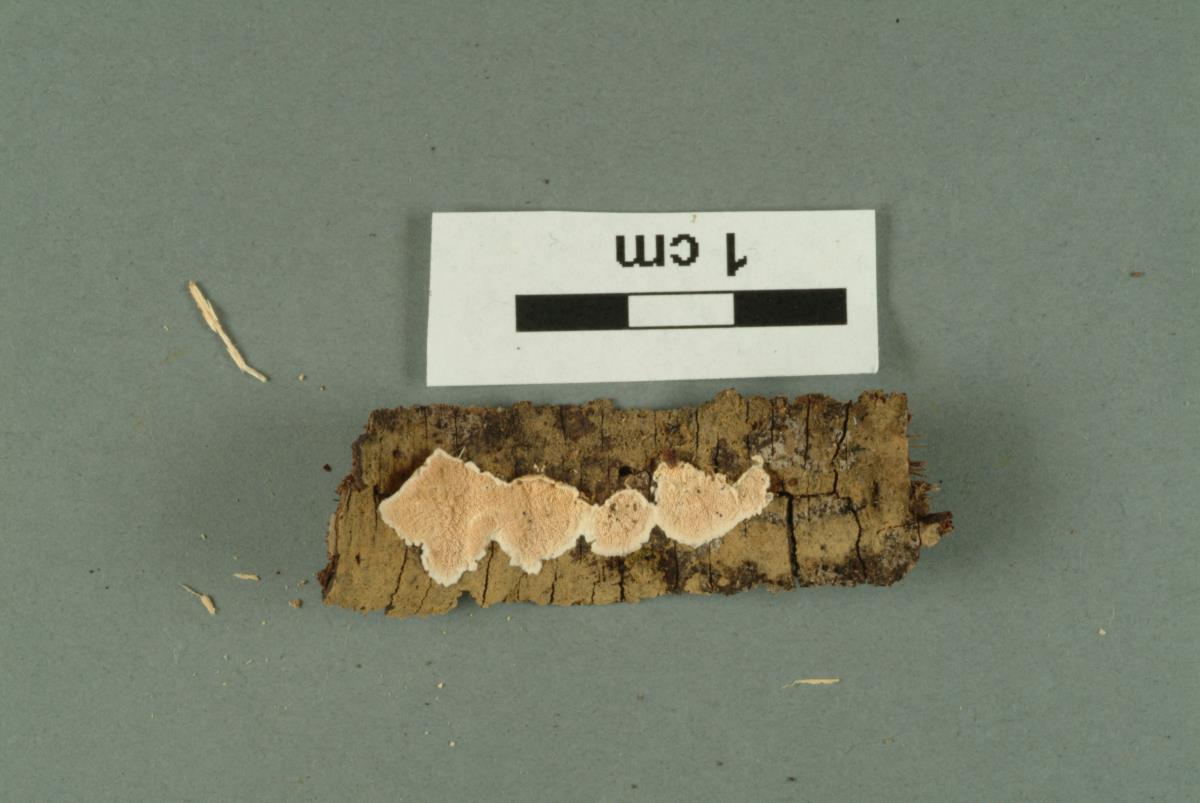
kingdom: Fungi
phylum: Basidiomycota
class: Agaricomycetes
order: Russulales
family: Stereaceae
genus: Stereodiscus
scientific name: Stereodiscus parmuliformis
